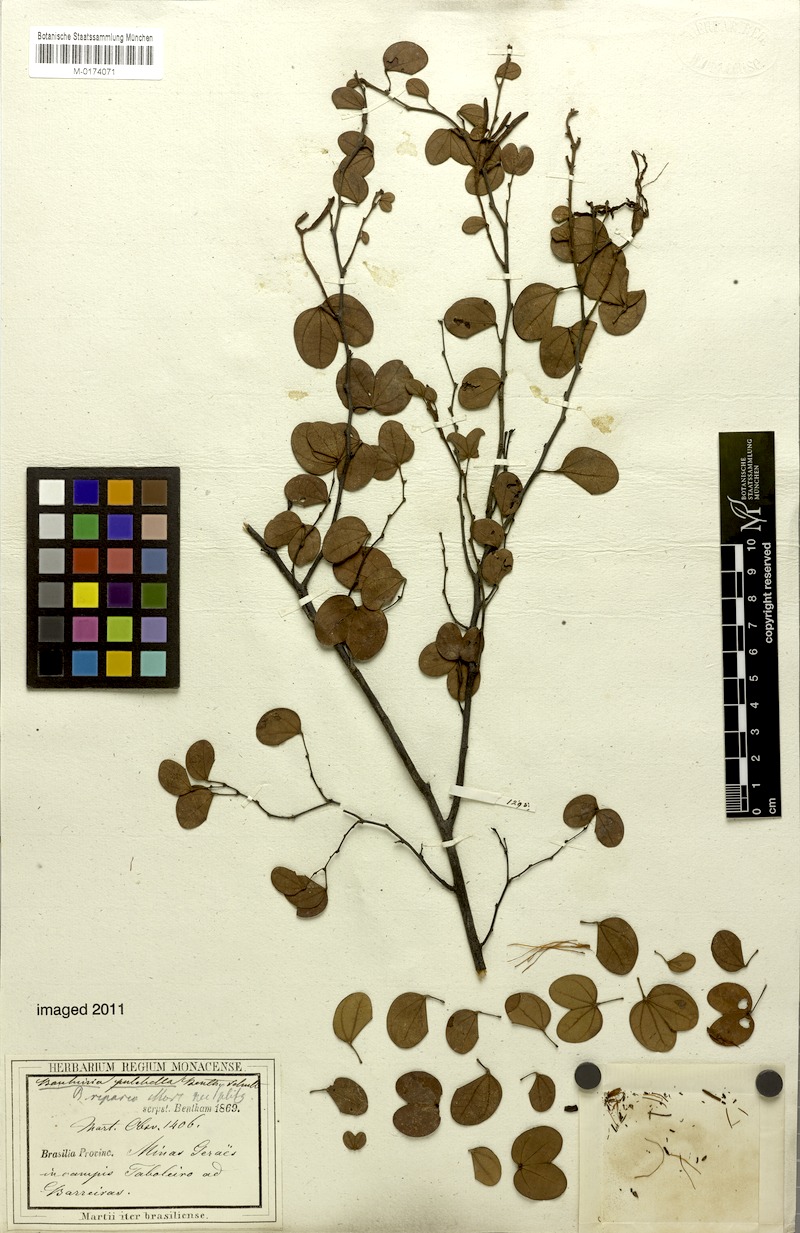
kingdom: Plantae
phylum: Tracheophyta
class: Magnoliopsida
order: Fabales
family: Fabaceae
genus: Bauhinia
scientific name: Bauhinia pulchella
